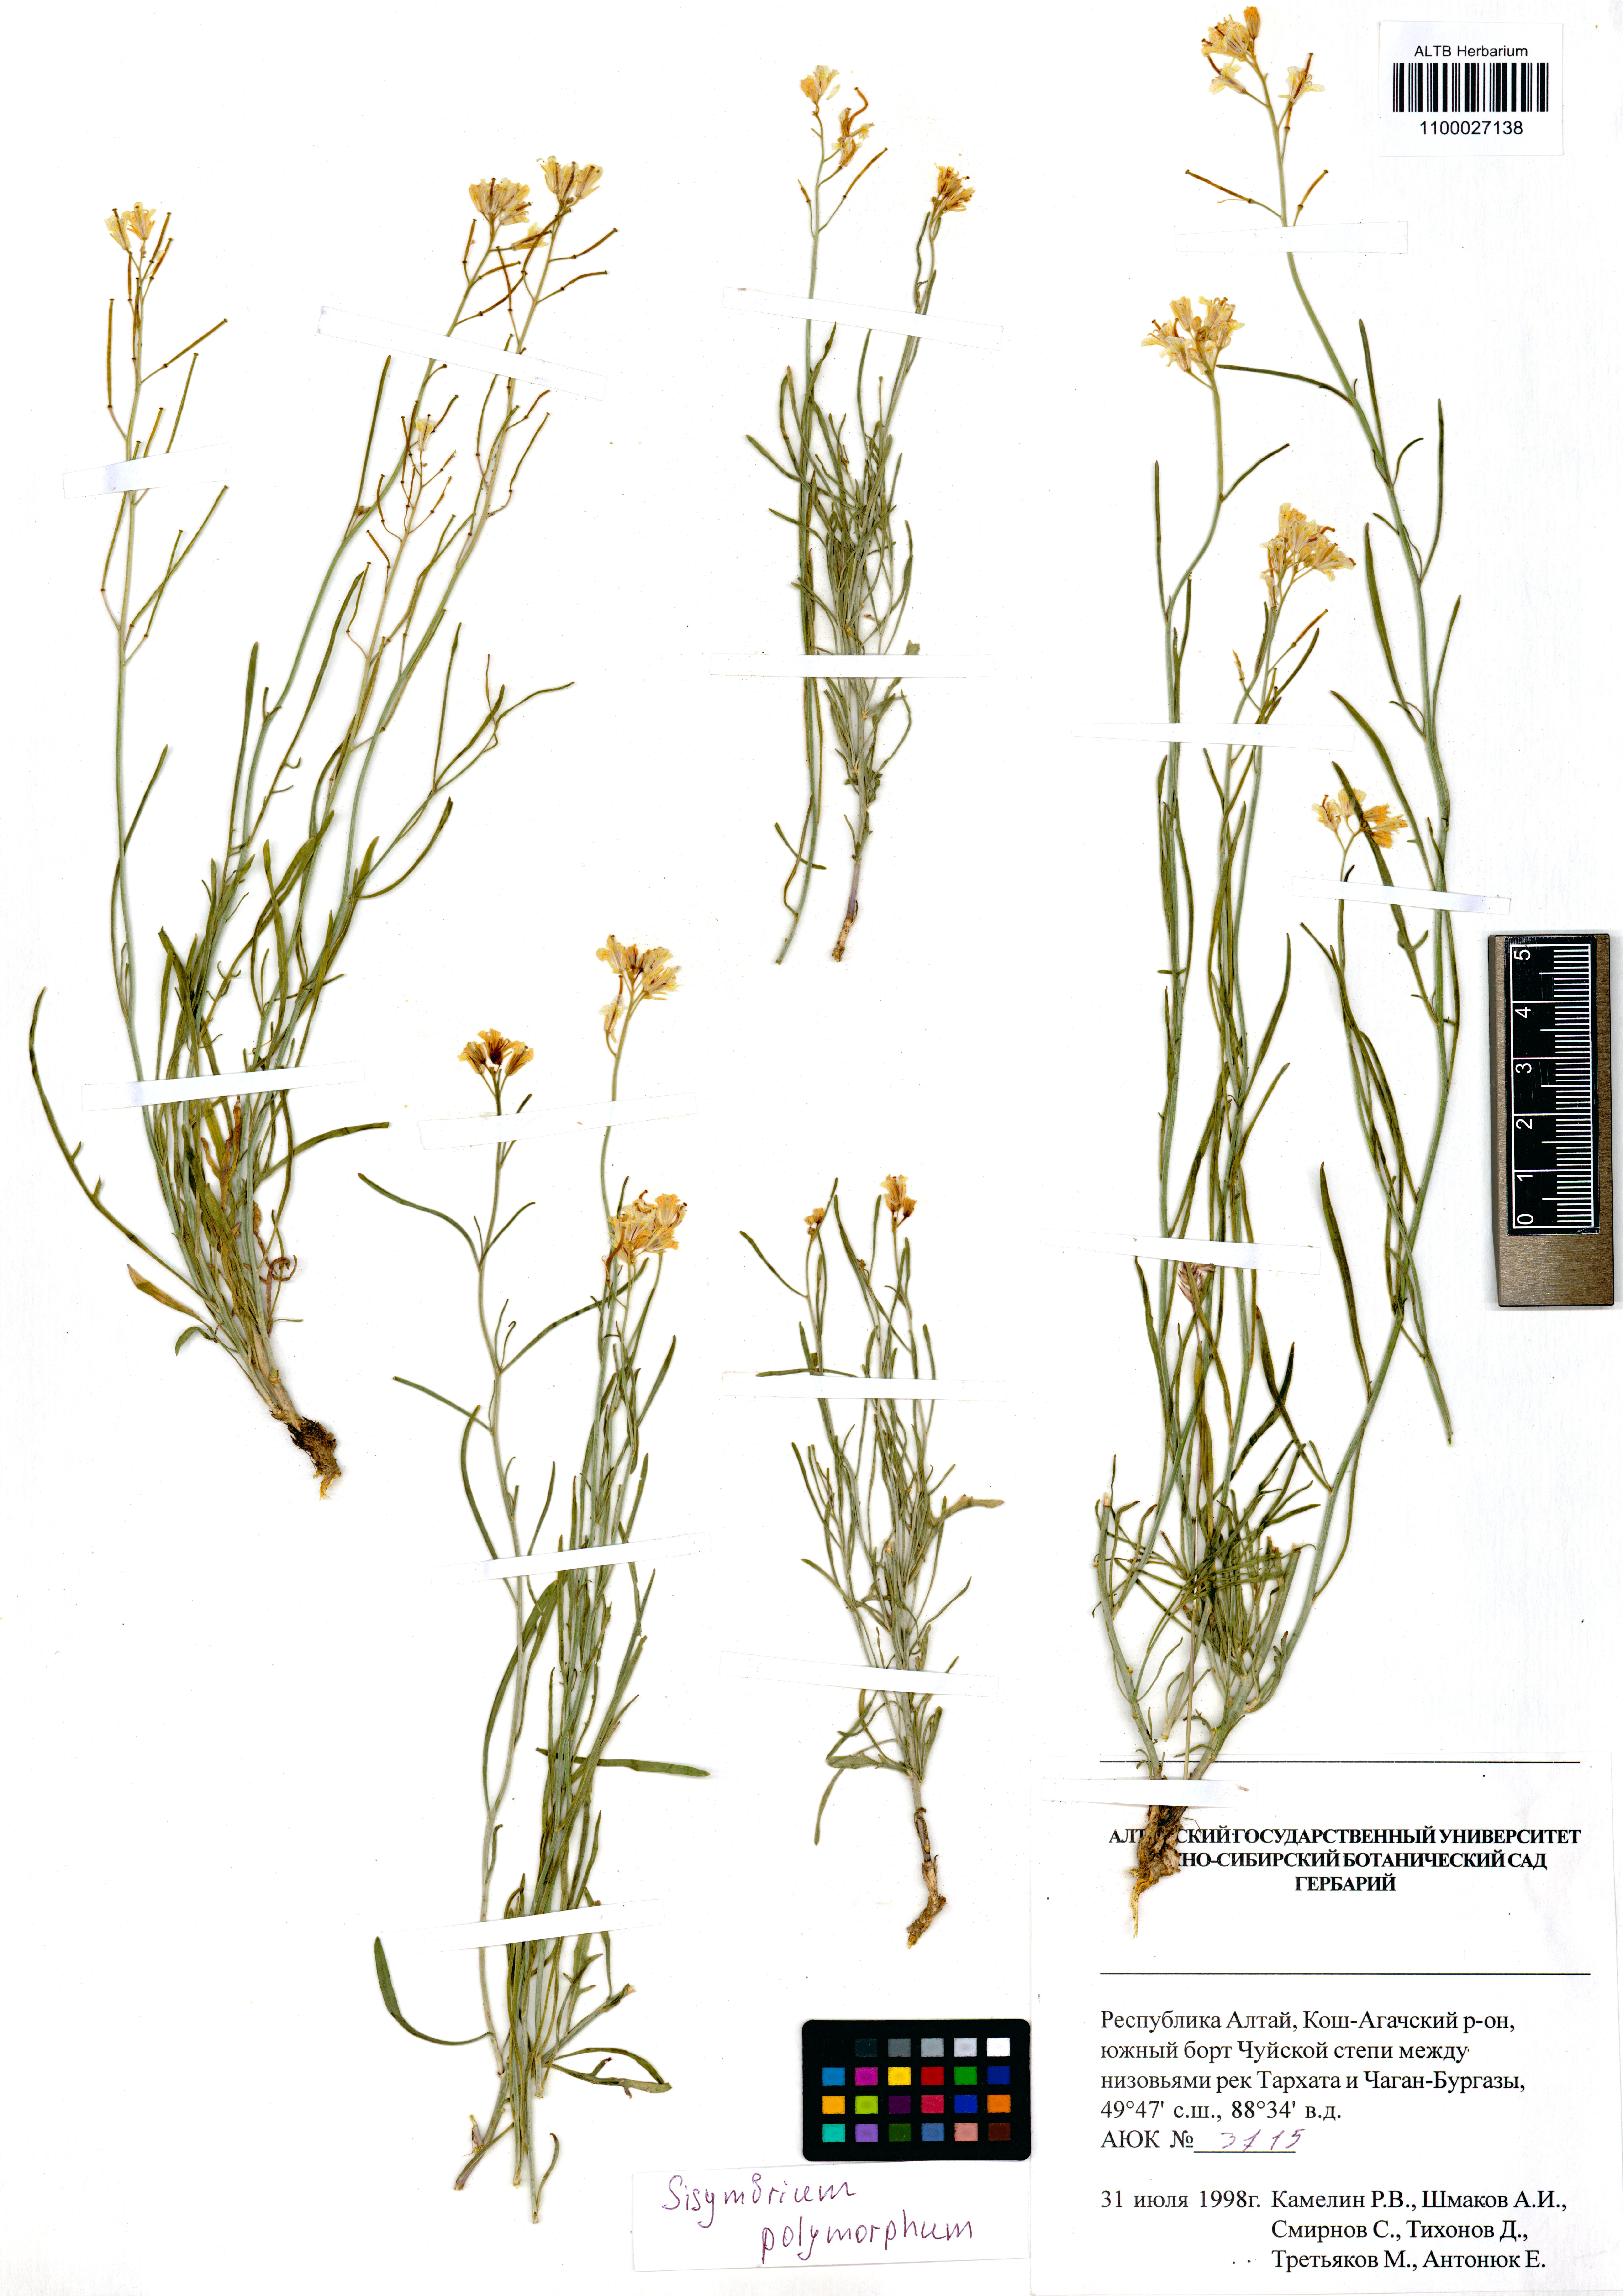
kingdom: Plantae
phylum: Tracheophyta
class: Magnoliopsida
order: Brassicales
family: Brassicaceae
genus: Sisymbrium
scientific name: Sisymbrium polymorphum
